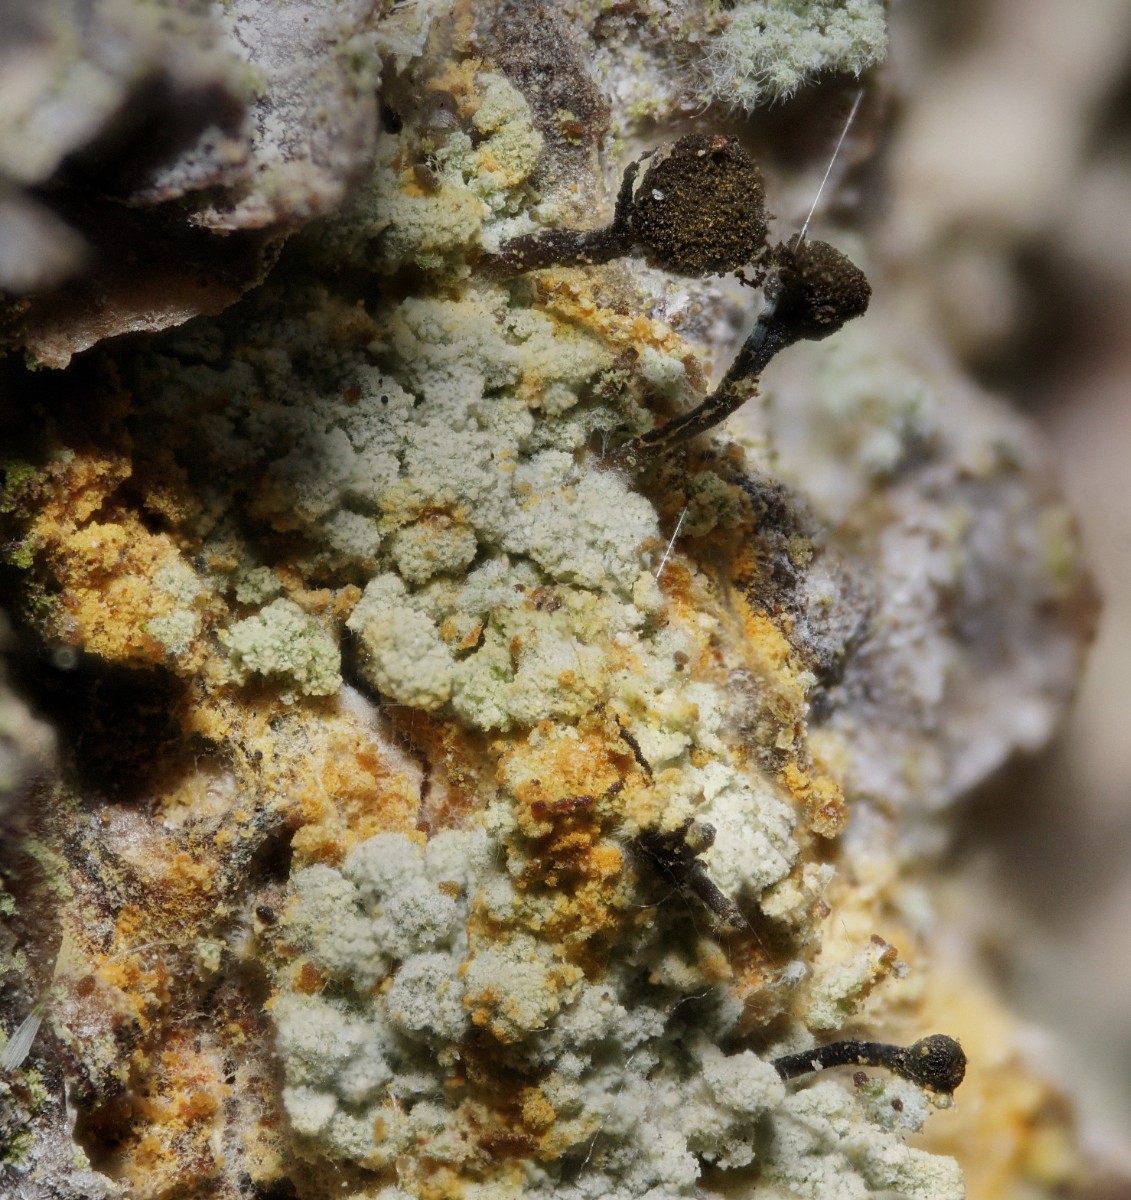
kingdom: Fungi
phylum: Ascomycota
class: Coniocybomycetes
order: Coniocybales
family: Coniocybaceae
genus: Chaenotheca
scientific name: Chaenotheca ferruginea
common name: rustbrun knappenålslav
